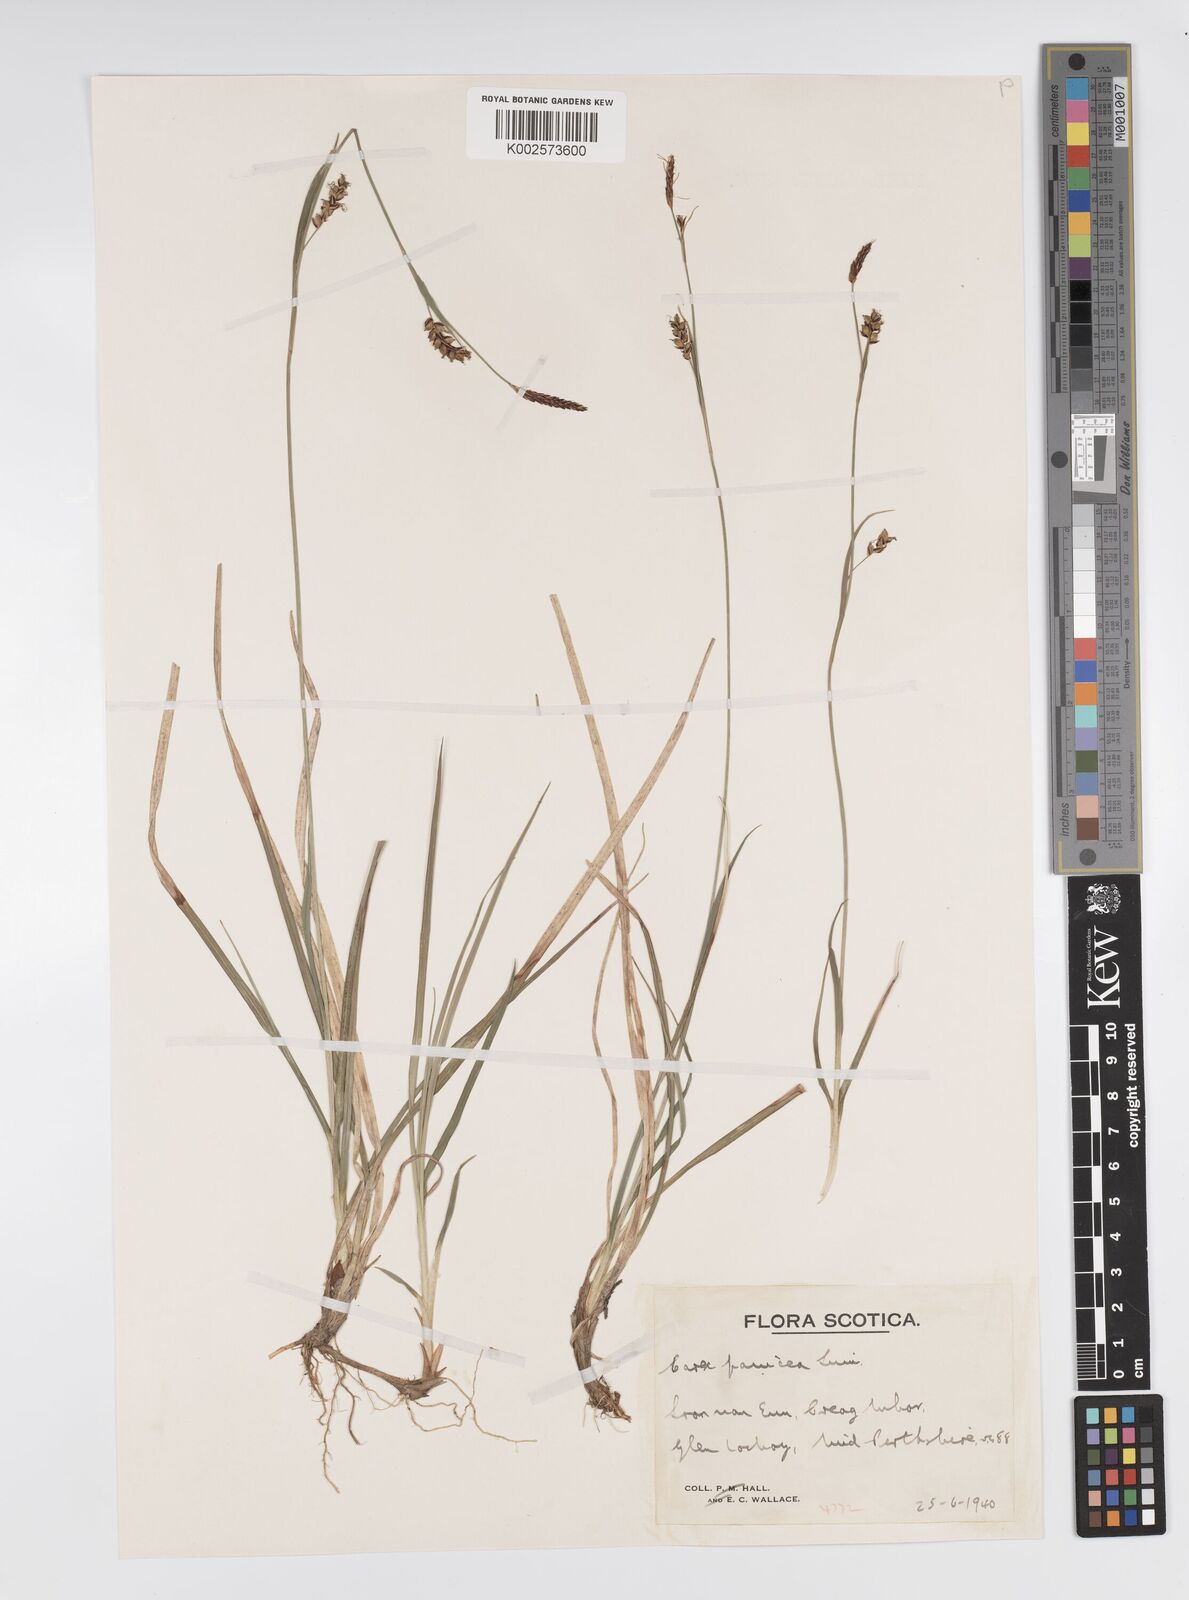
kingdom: Plantae
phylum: Tracheophyta
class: Liliopsida
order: Poales
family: Cyperaceae
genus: Carex
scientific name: Carex panicea
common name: Carnation sedge
